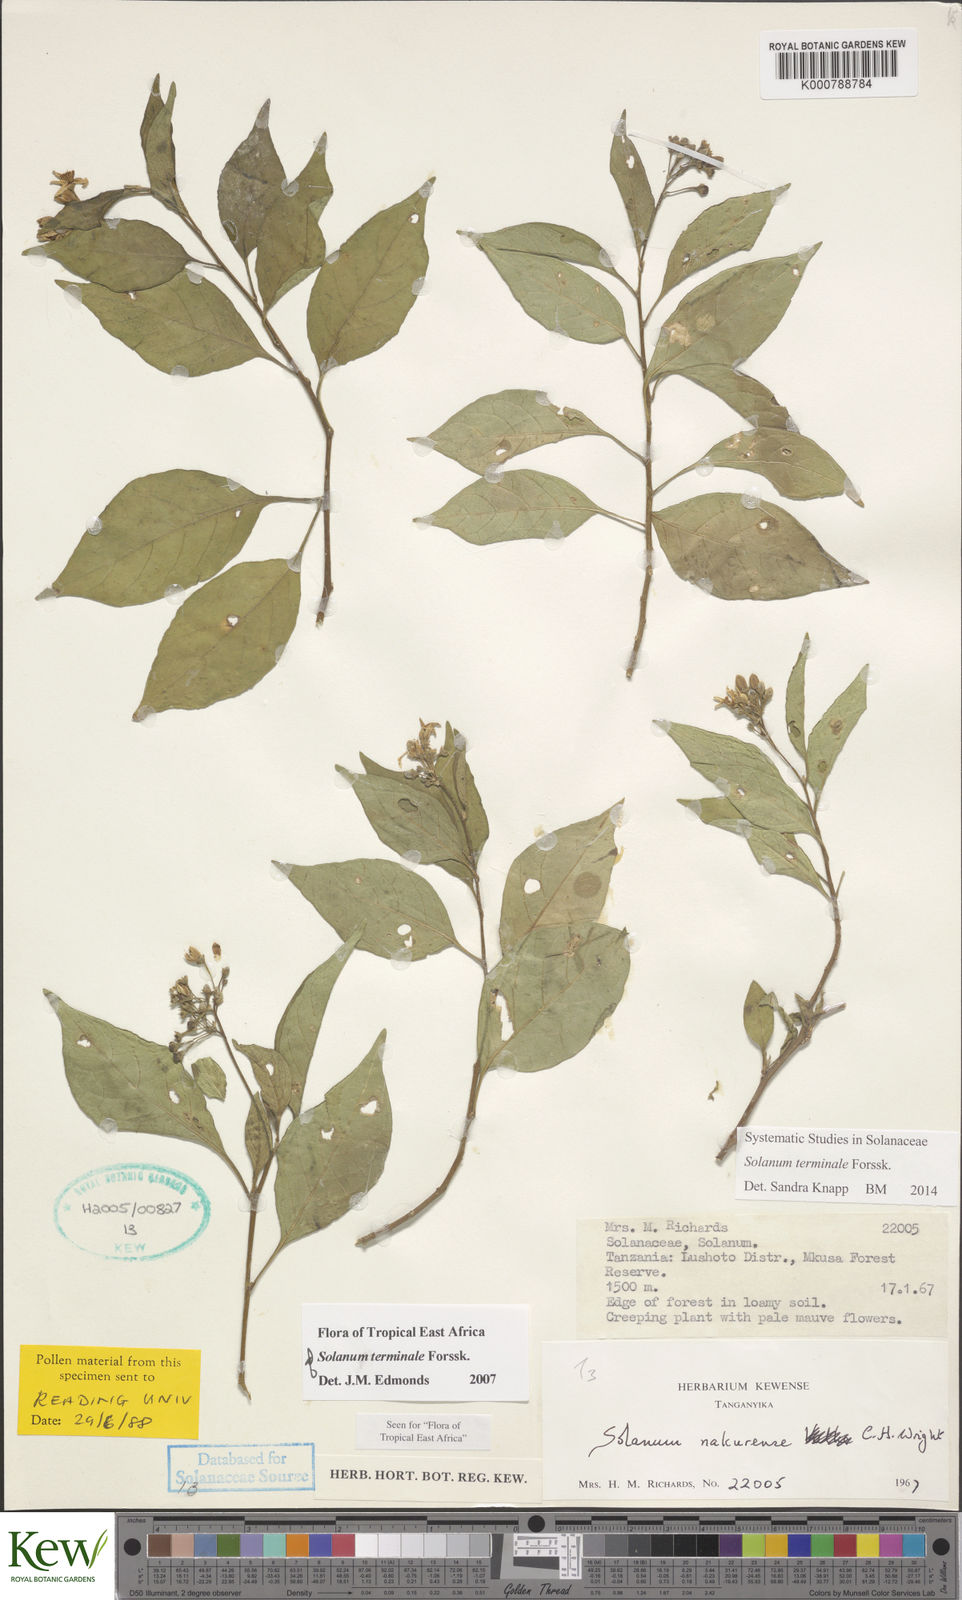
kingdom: Plantae
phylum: Tracheophyta
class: Magnoliopsida
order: Solanales
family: Solanaceae
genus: Solanum
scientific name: Solanum terminale
